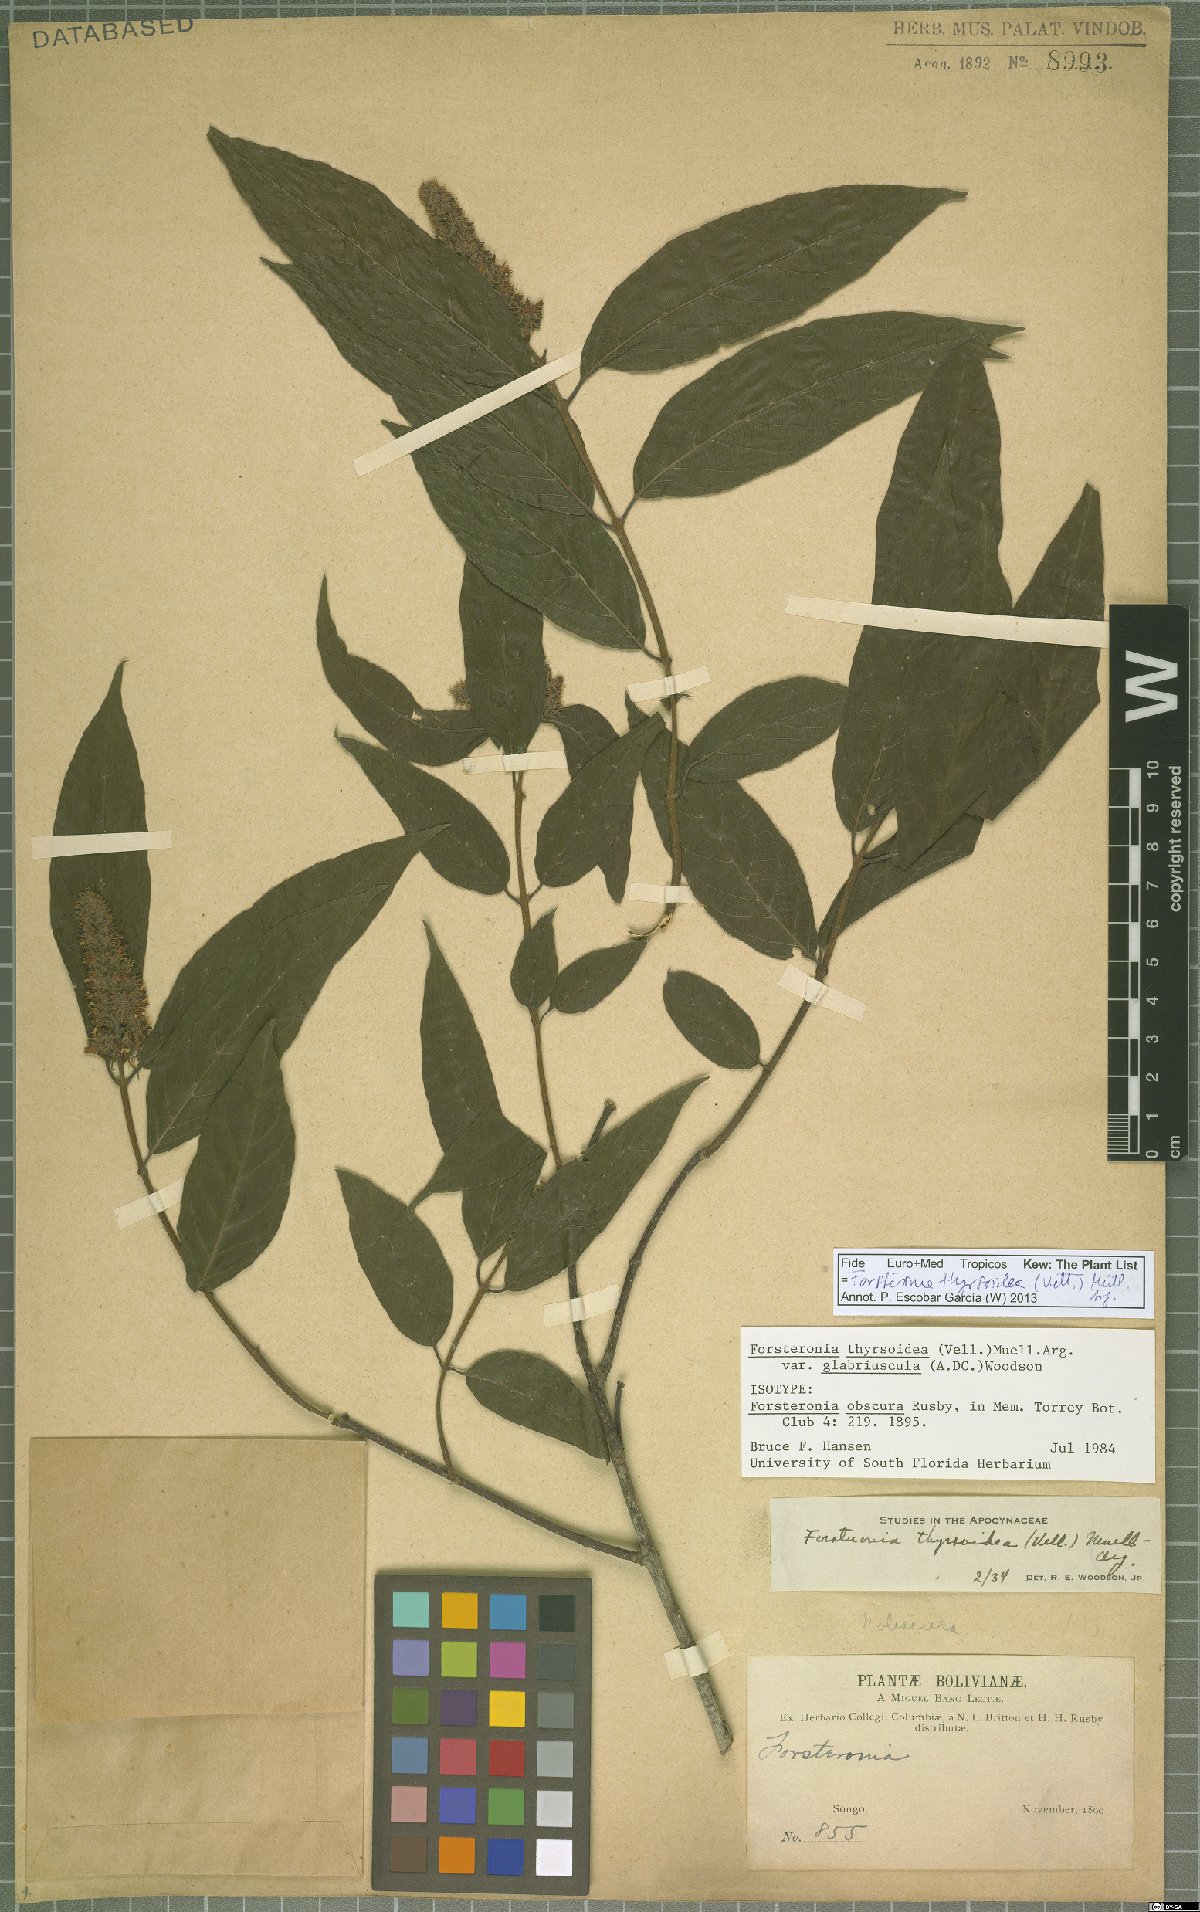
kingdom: Plantae
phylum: Tracheophyta
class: Magnoliopsida
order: Gentianales
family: Apocynaceae
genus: Forsteronia
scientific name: Forsteronia thyrsoidea
